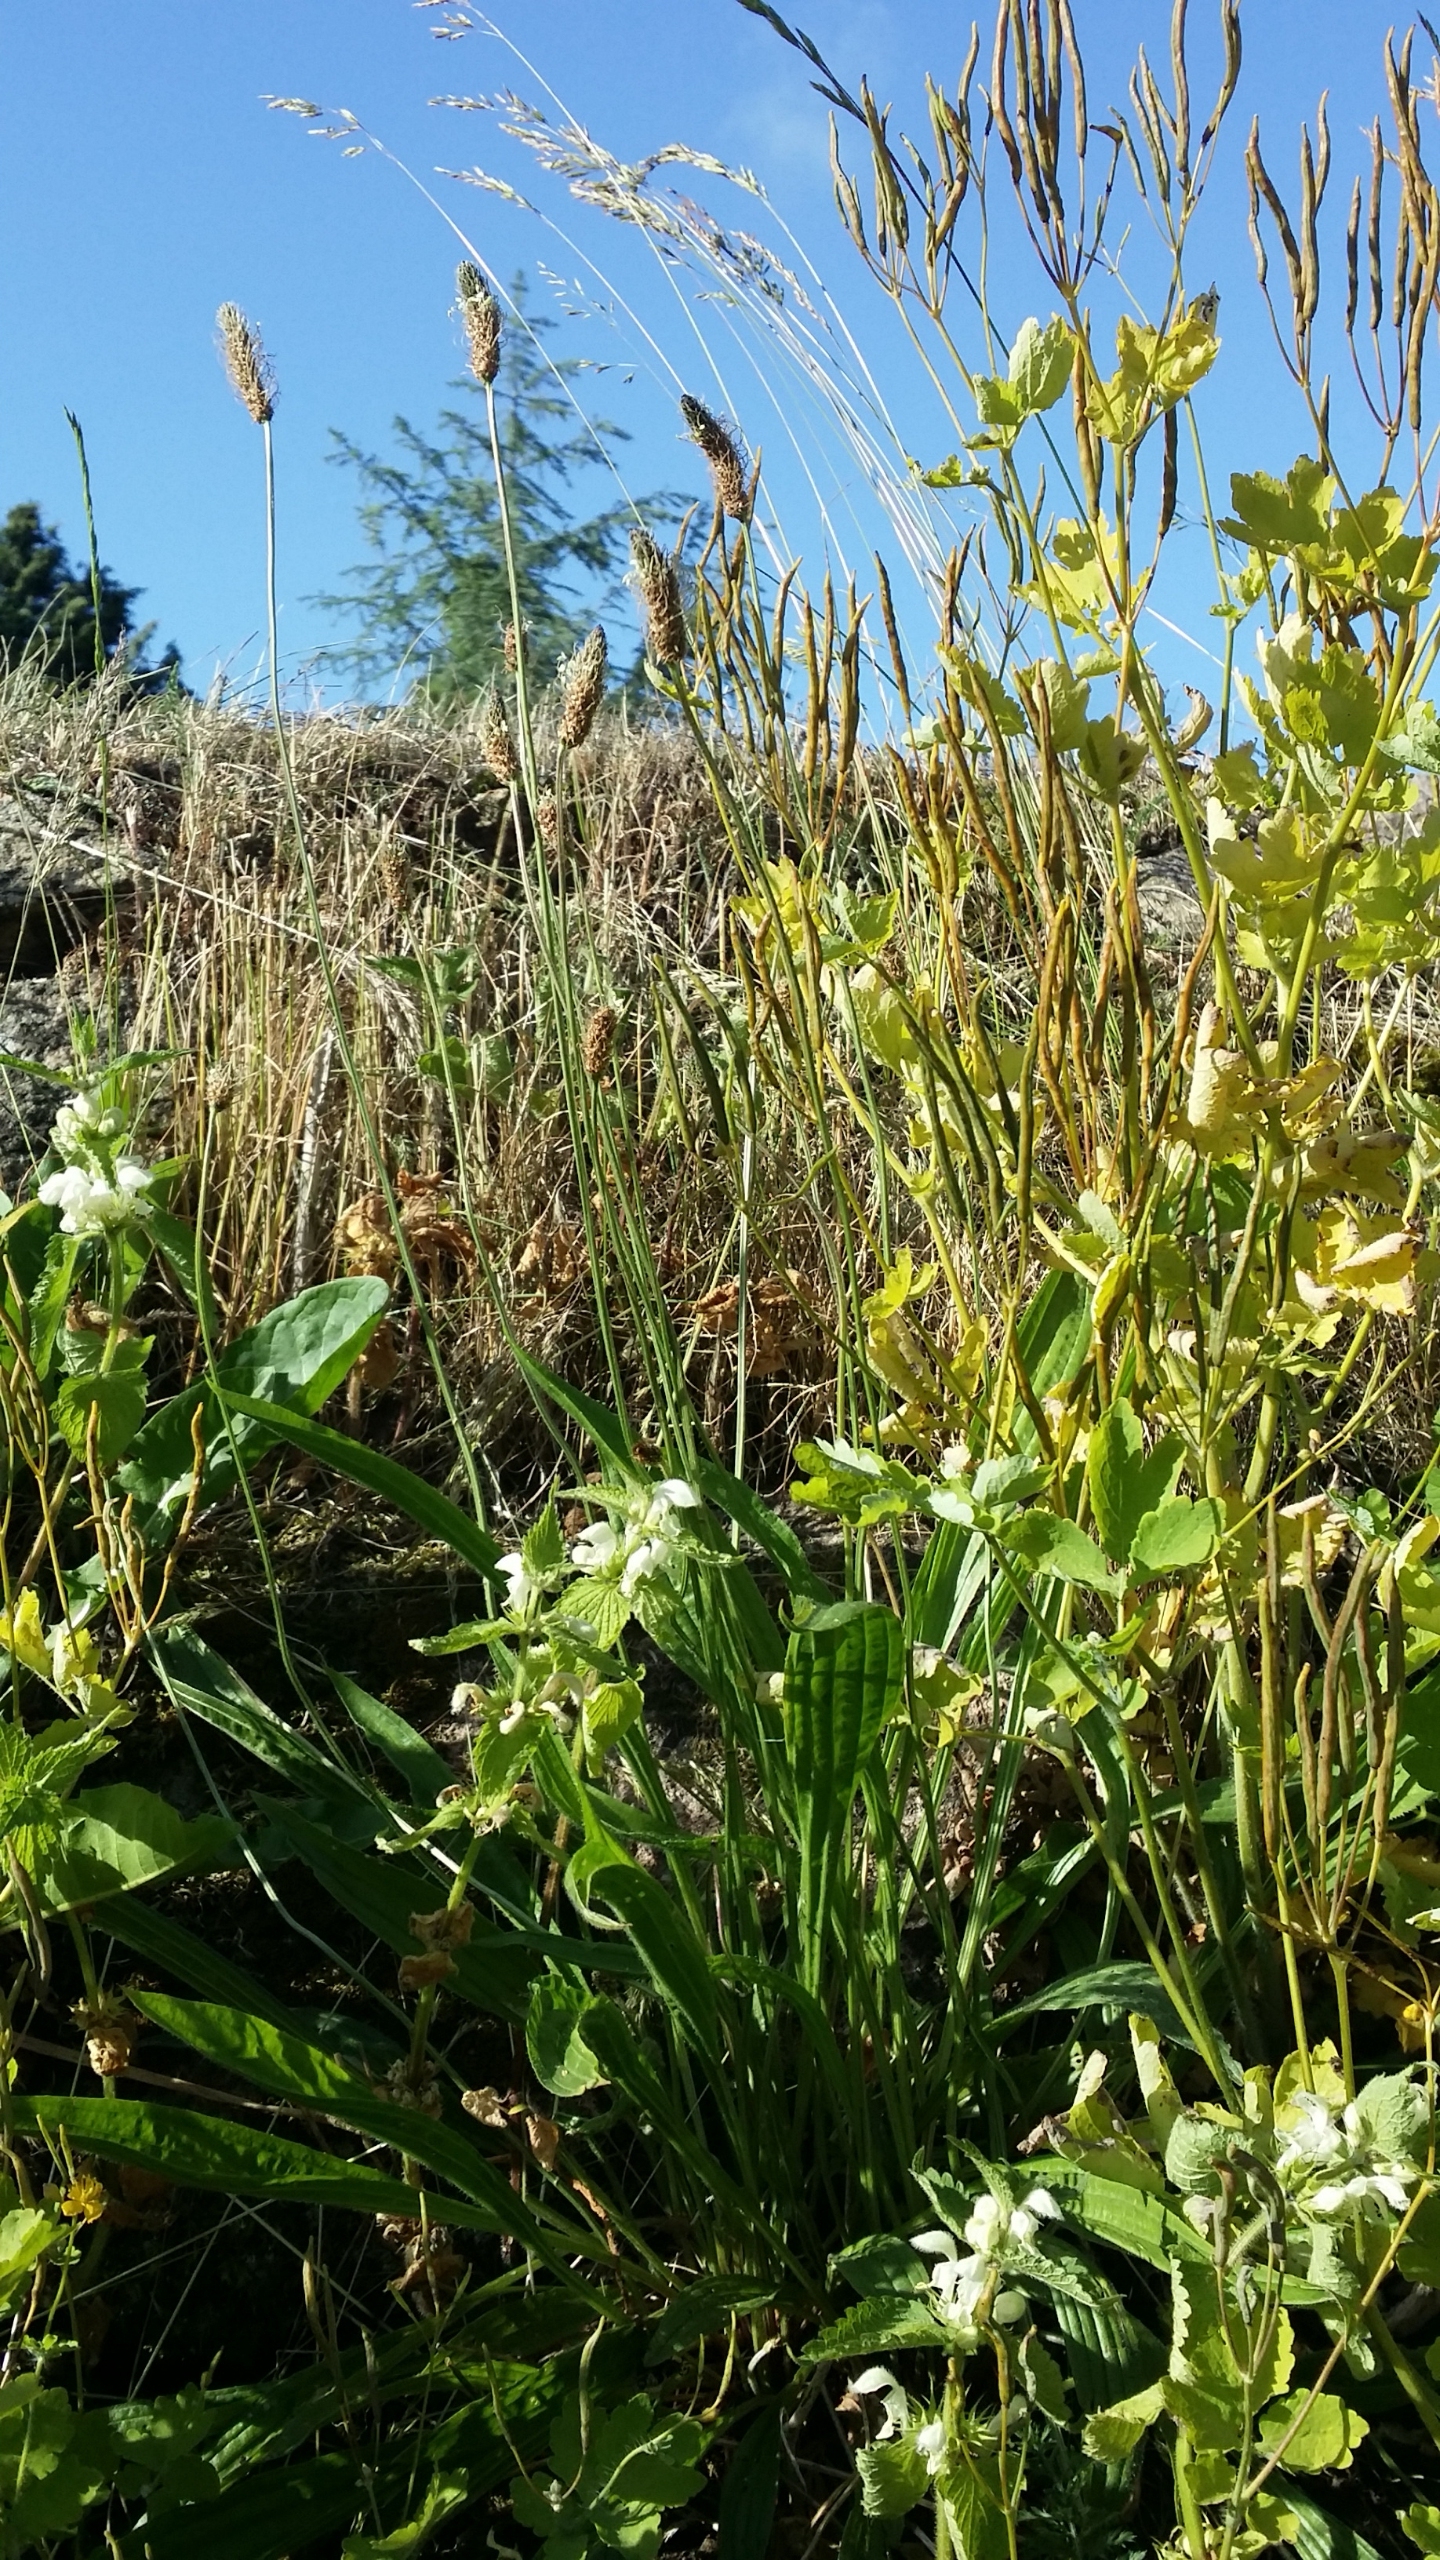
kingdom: Plantae
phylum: Tracheophyta
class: Magnoliopsida
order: Lamiales
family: Plantaginaceae
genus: Plantago
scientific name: Plantago lanceolata
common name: Lancet-vejbred
